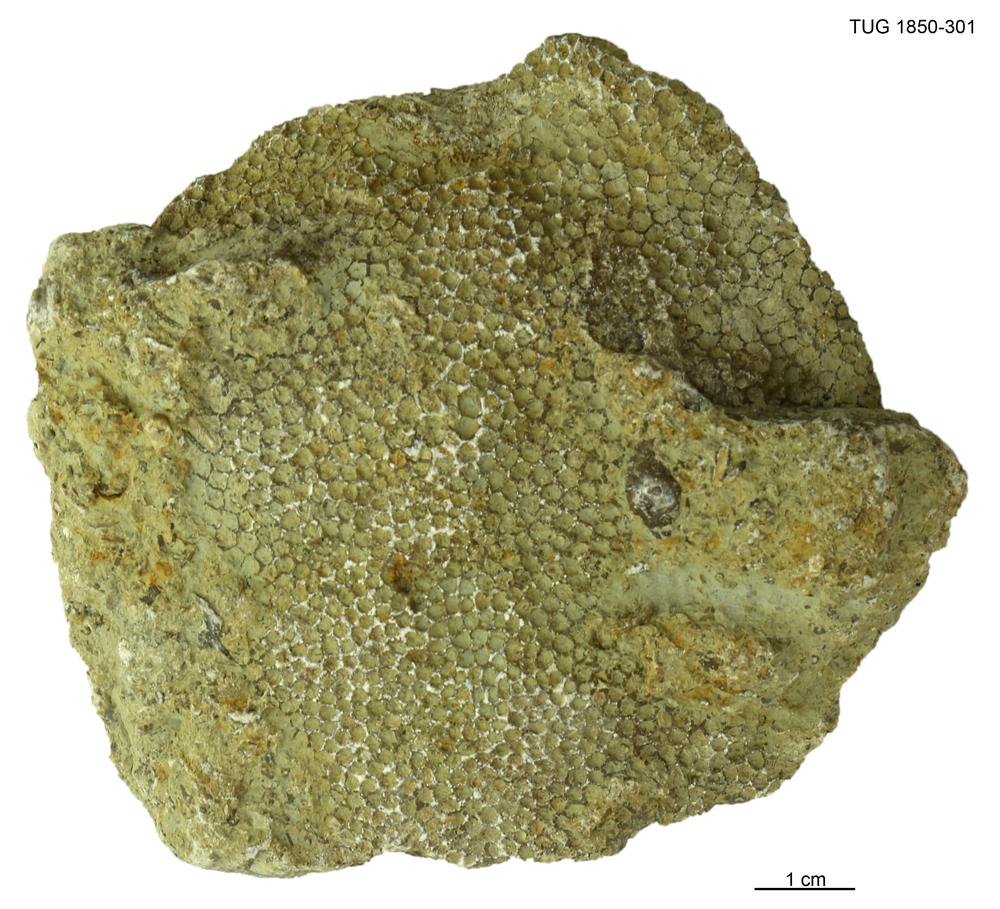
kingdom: Animalia
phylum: Cnidaria
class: Anthozoa
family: Favositidae
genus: Favosites
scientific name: Favosites
